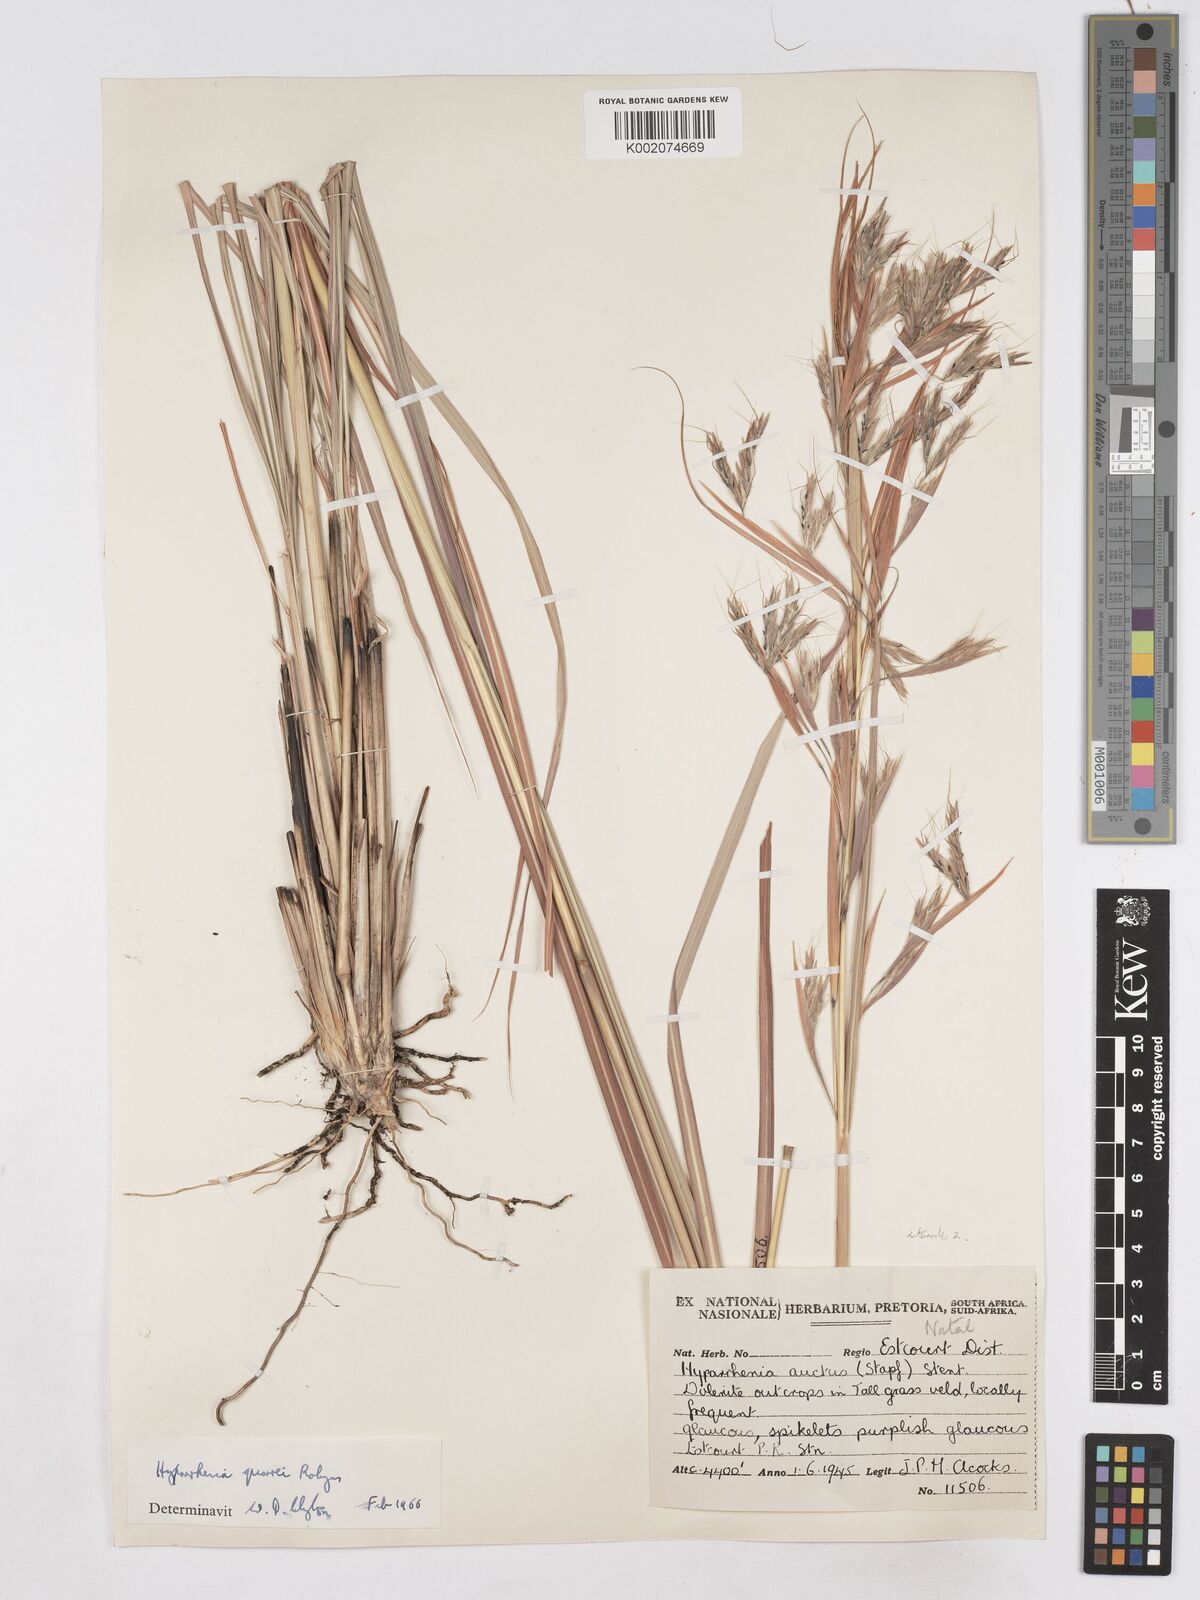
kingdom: Plantae
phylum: Tracheophyta
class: Liliopsida
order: Poales
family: Poaceae
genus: Hyparrhenia
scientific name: Hyparrhenia quarrei
